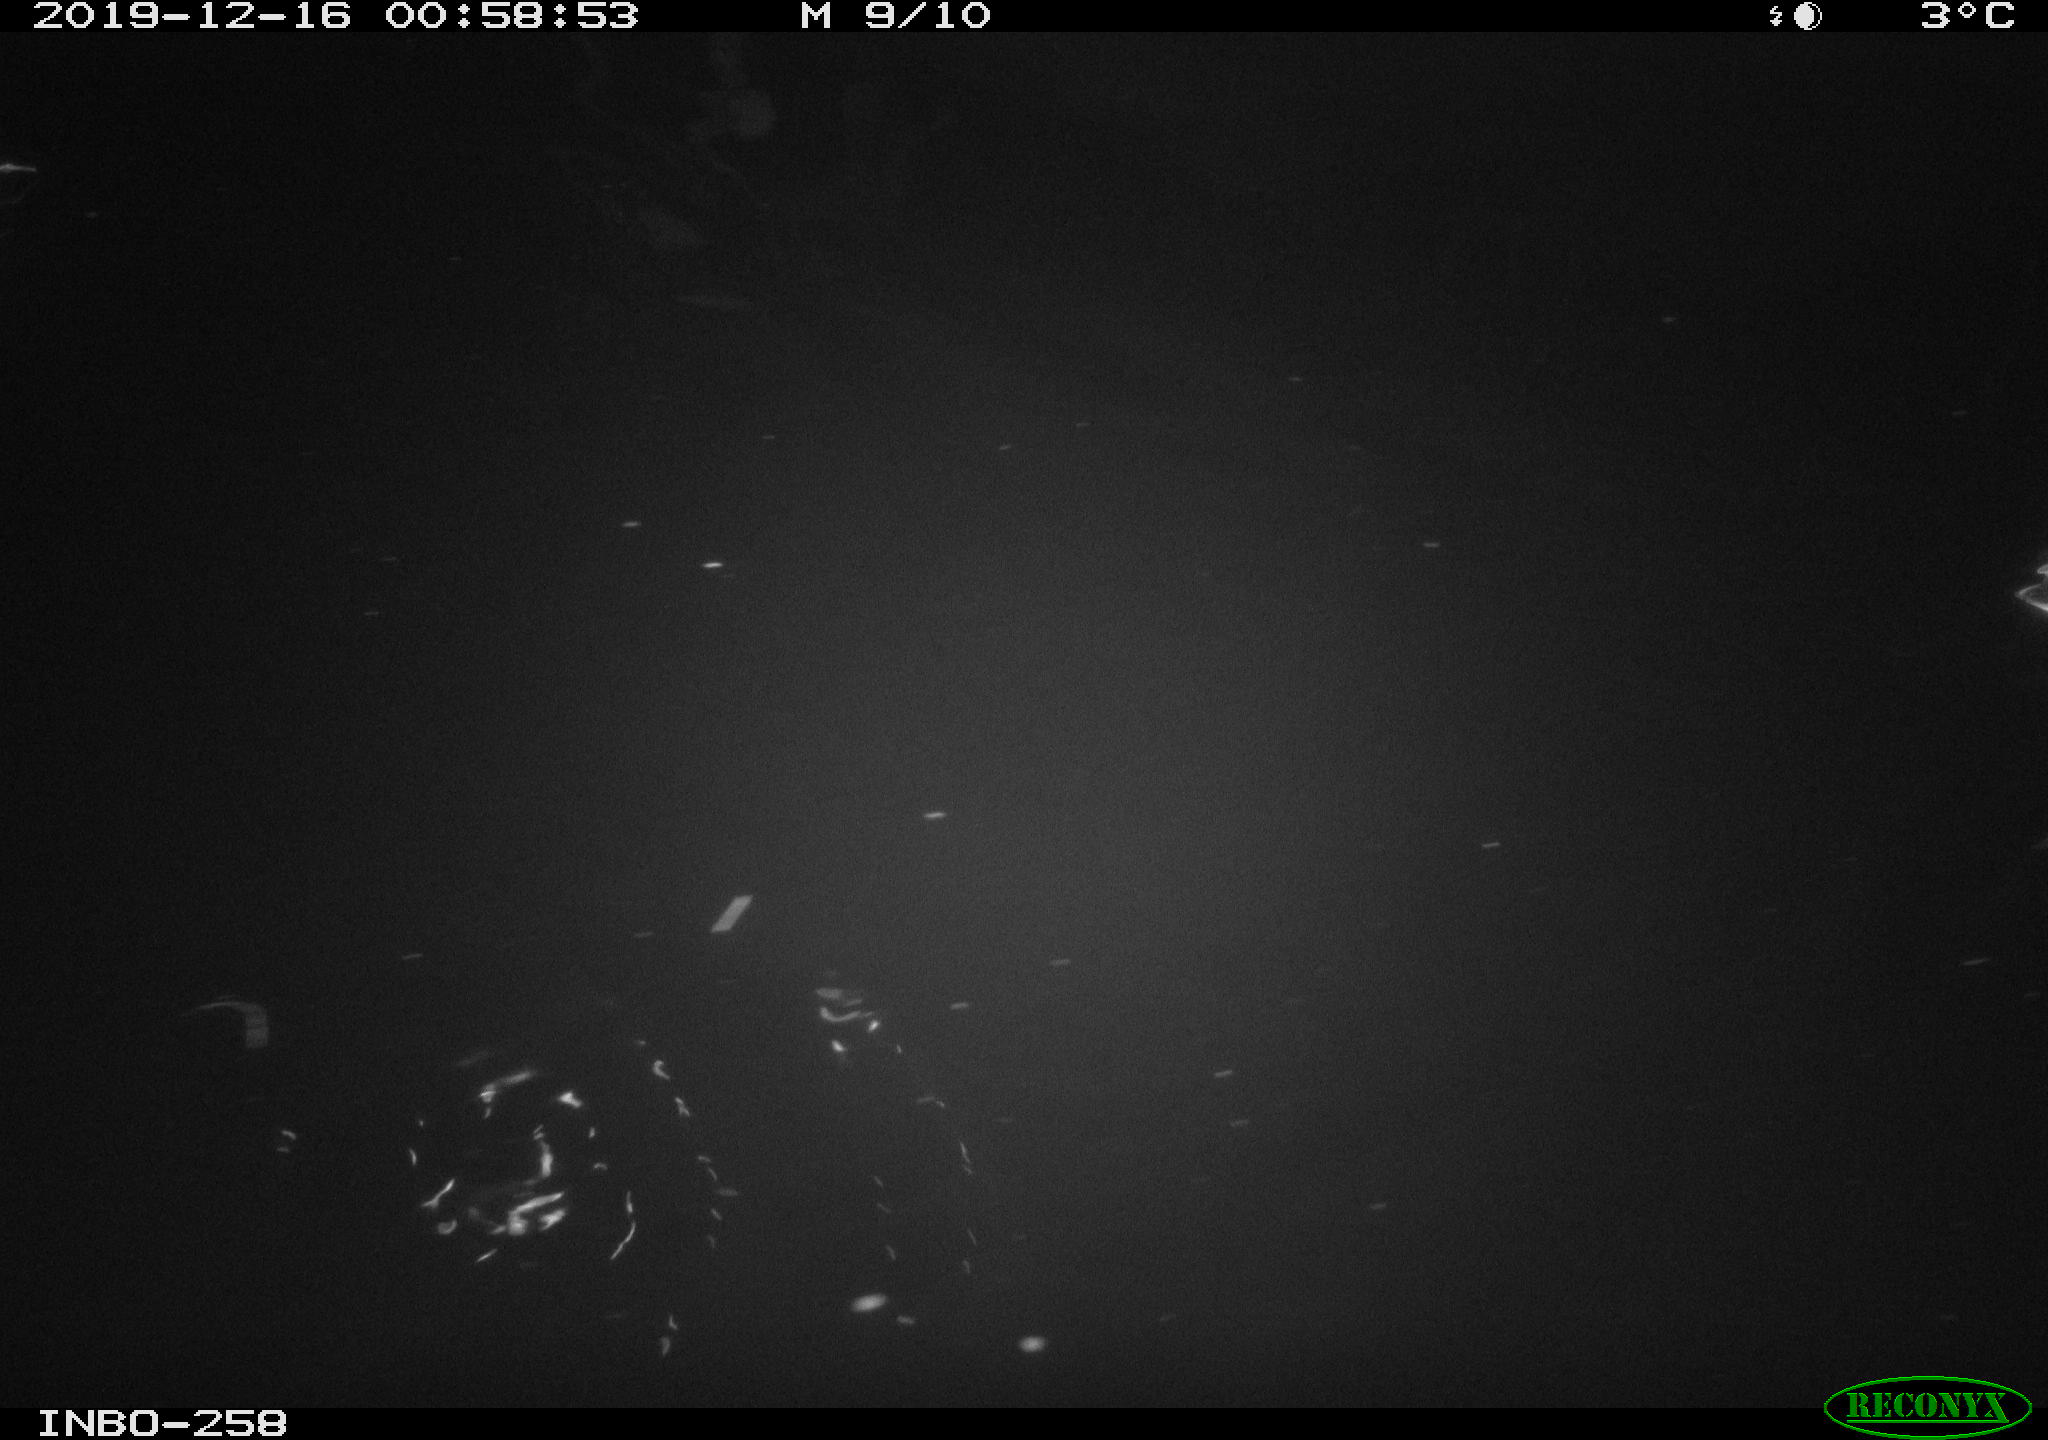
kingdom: Animalia
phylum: Chordata
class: Aves
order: Anseriformes
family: Anatidae
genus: Anas
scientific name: Anas platyrhynchos
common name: Mallard
